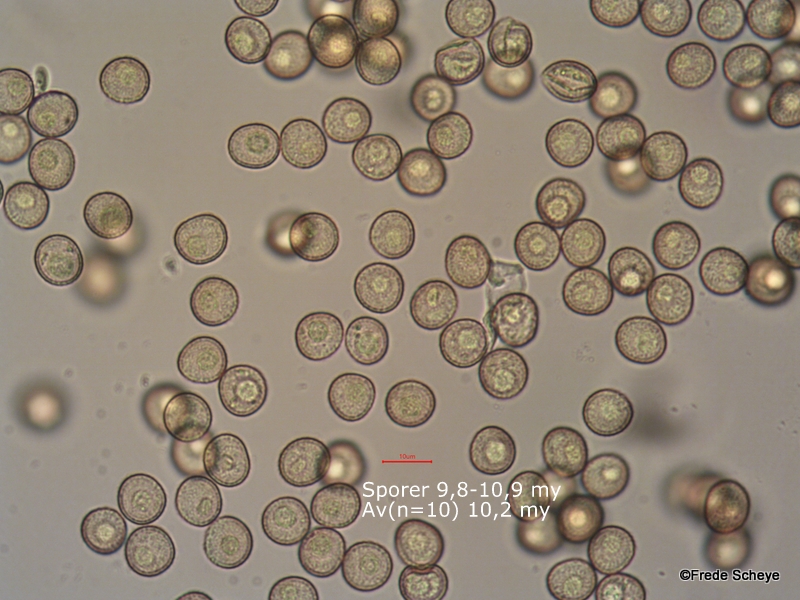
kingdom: Protozoa
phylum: Mycetozoa
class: Myxomycetes
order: Trichiales
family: Trichiaceae
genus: Trichia
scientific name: Trichia
